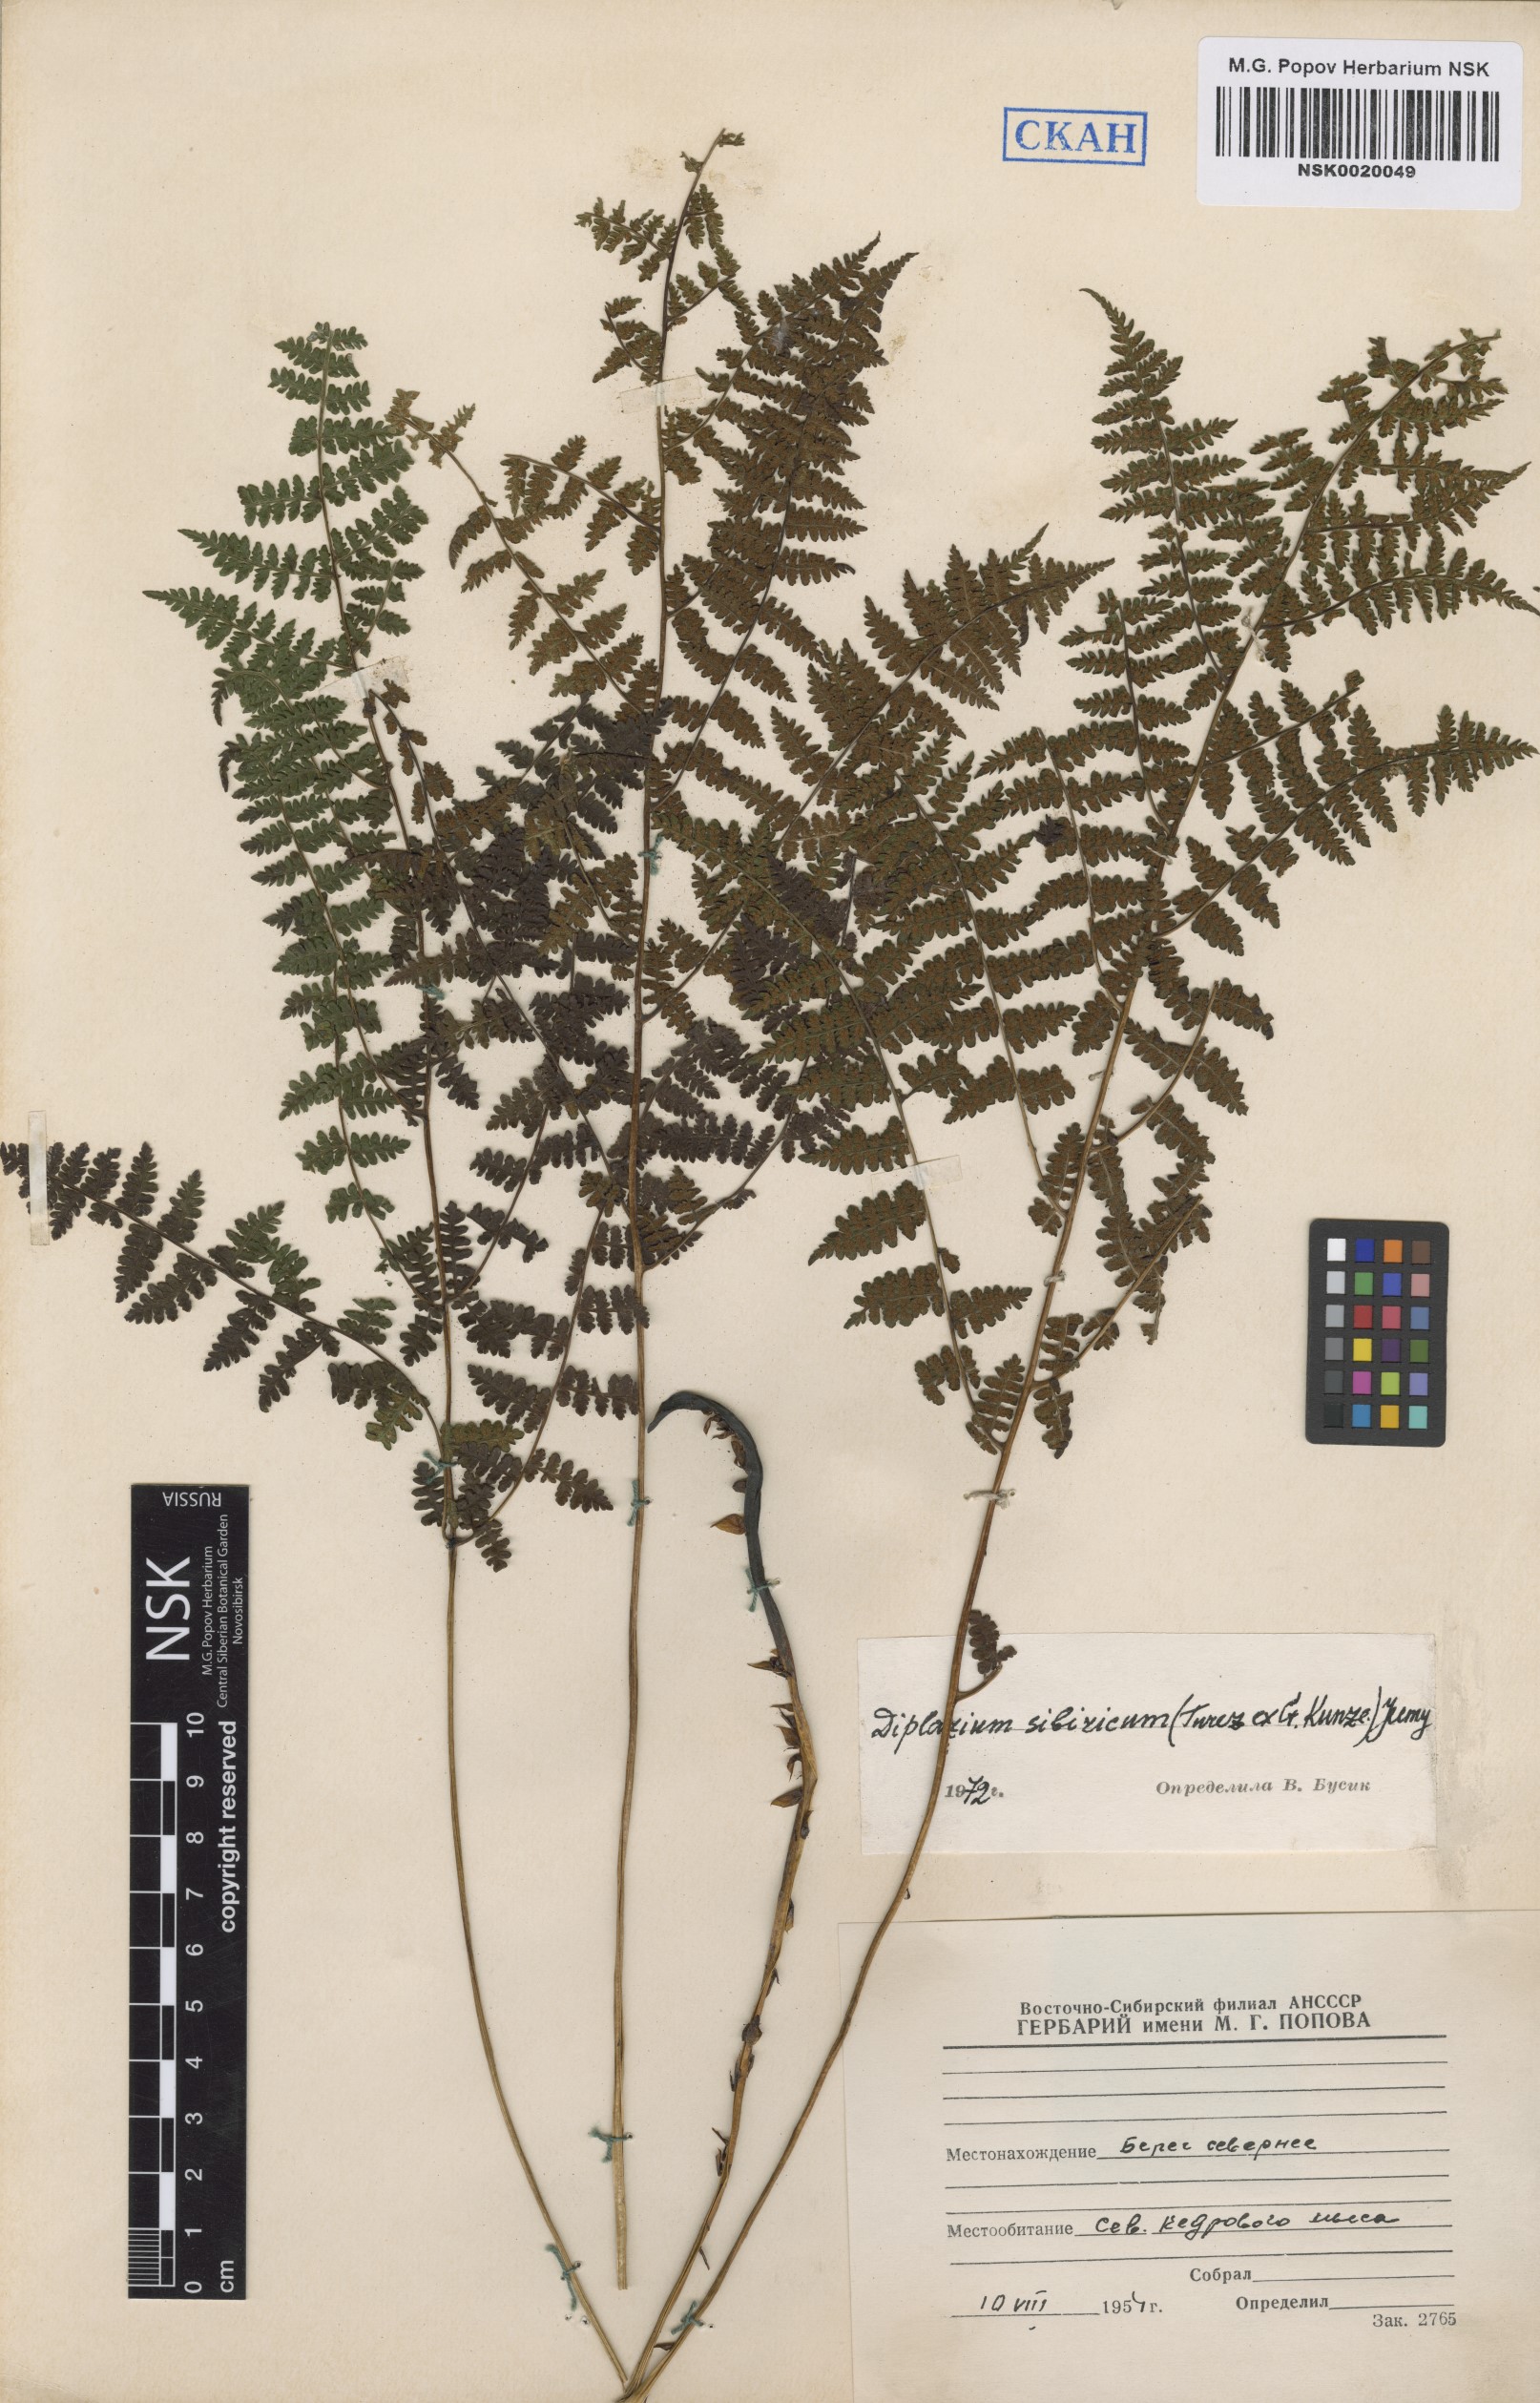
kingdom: Plantae
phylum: Tracheophyta
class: Polypodiopsida
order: Polypodiales
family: Athyriaceae
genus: Diplazium
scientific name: Diplazium sibiricum
